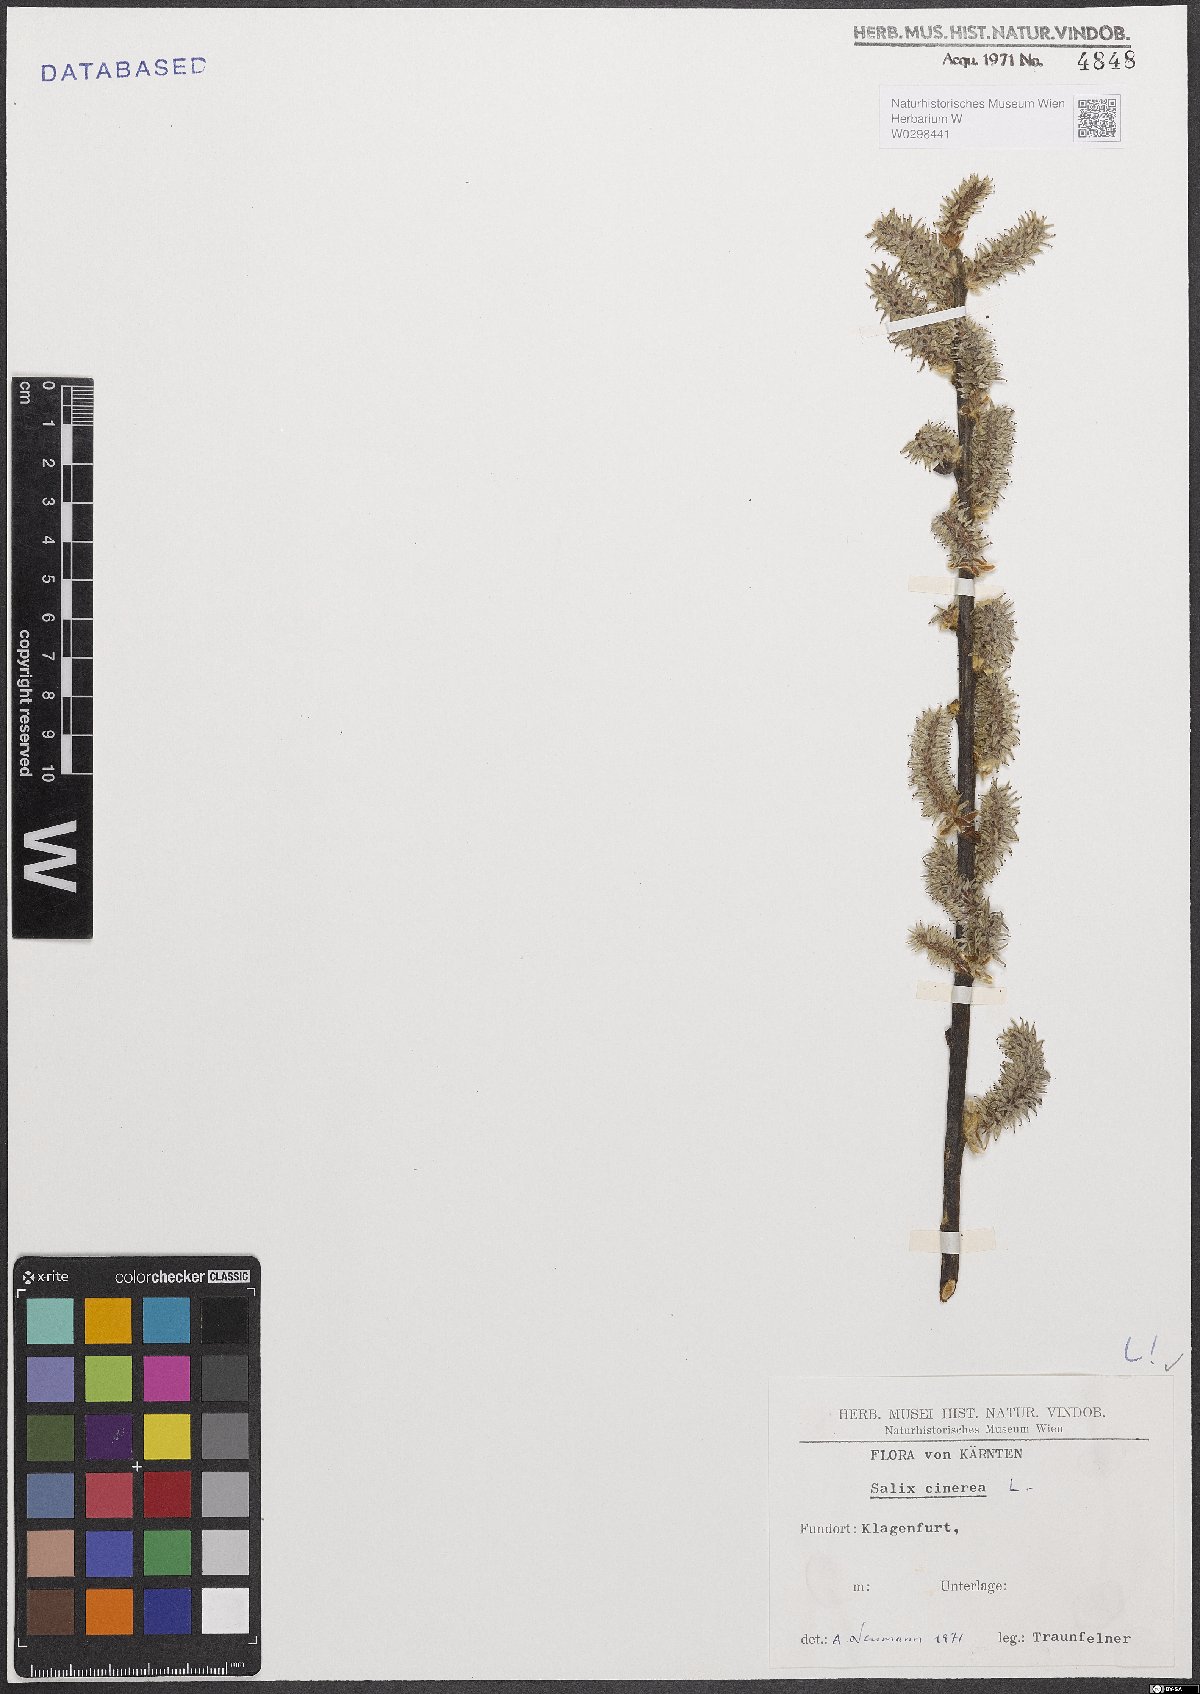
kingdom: Plantae
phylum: Tracheophyta
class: Magnoliopsida
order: Malpighiales
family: Salicaceae
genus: Salix
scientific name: Salix cinerea
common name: Common sallow
